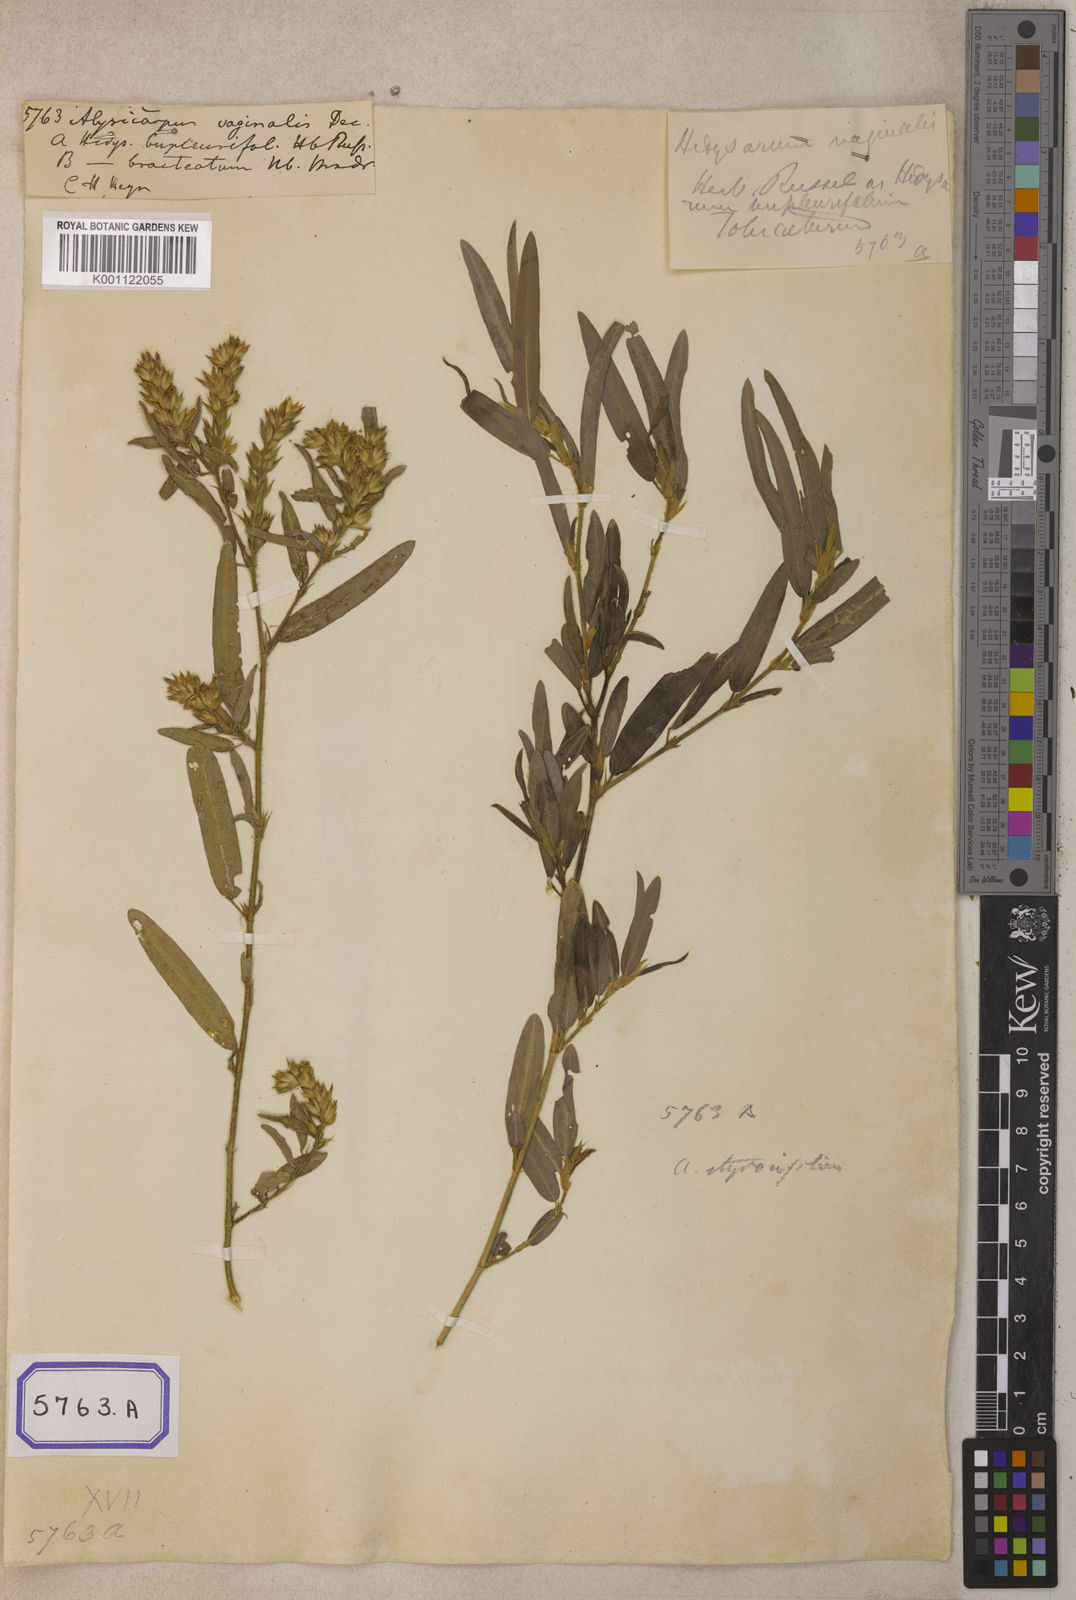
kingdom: Plantae
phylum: Tracheophyta
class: Magnoliopsida
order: Fabales
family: Fabaceae
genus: Alysicarpus
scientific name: Alysicarpus vaginalis
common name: White moneywort
